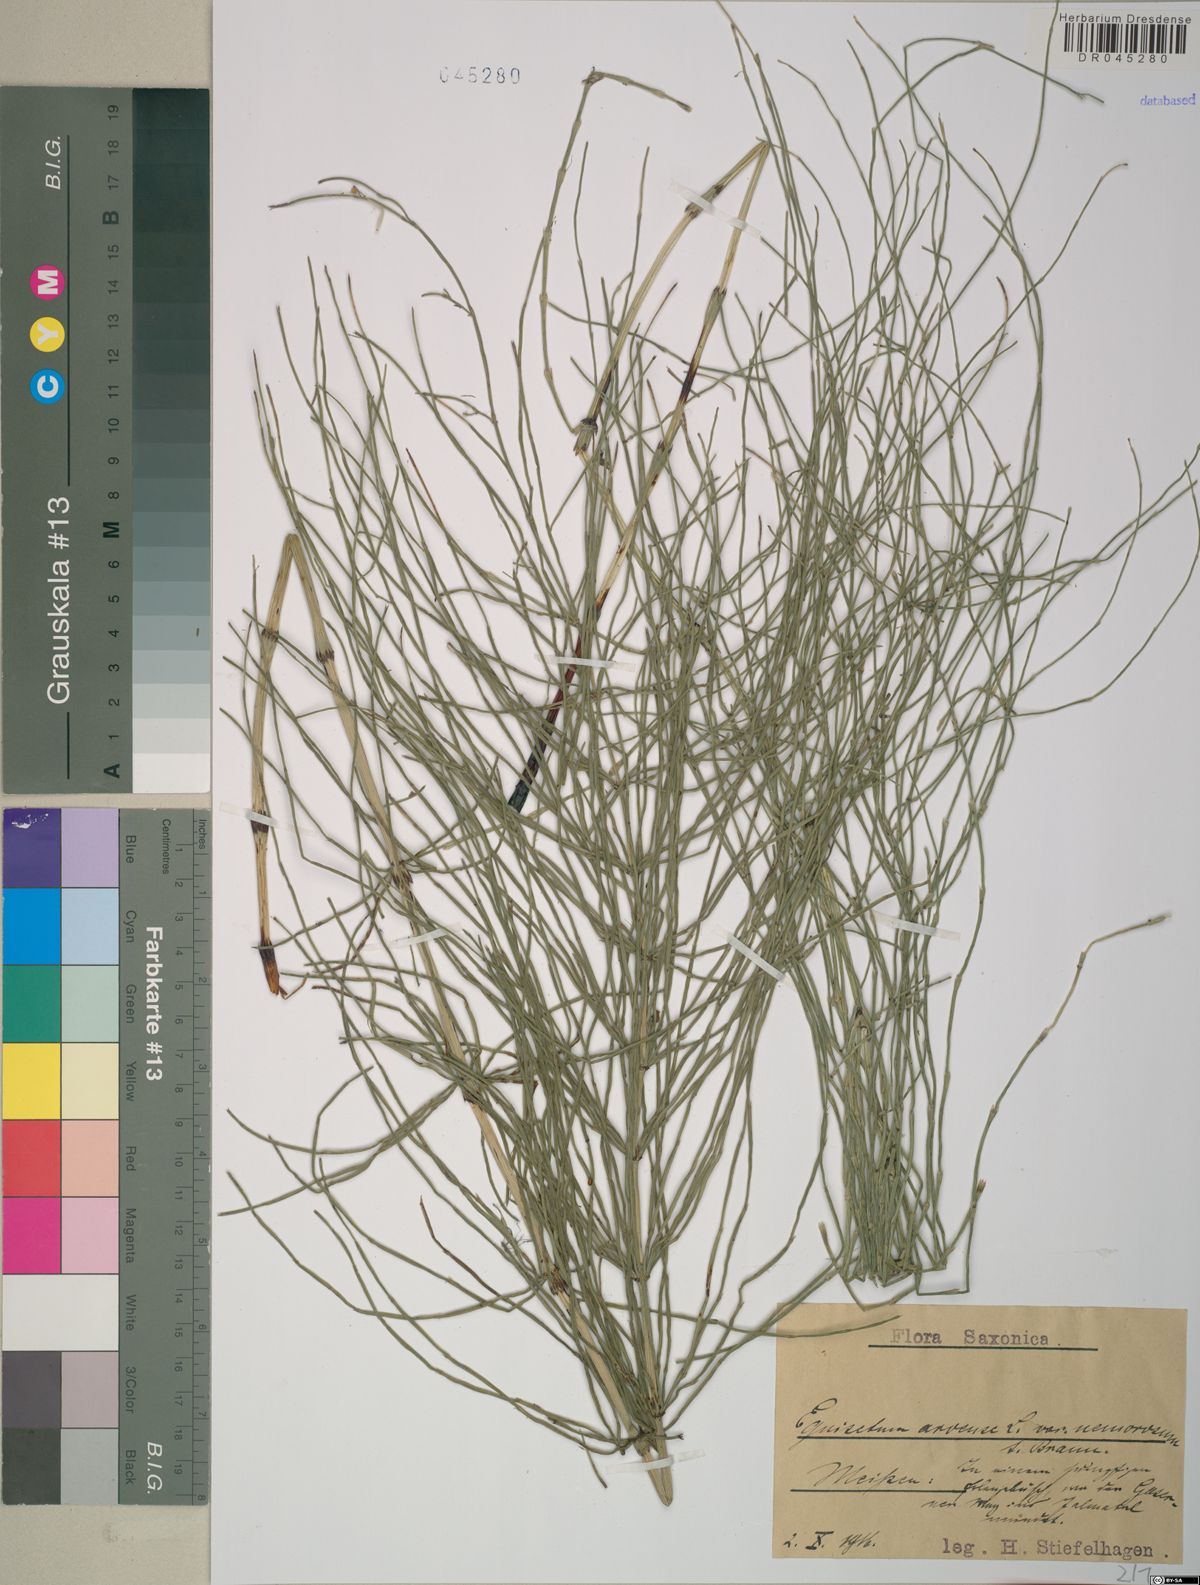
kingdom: Plantae
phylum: Tracheophyta
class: Polypodiopsida
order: Equisetales
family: Equisetaceae
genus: Equisetum
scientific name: Equisetum arvense
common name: Field horsetail
